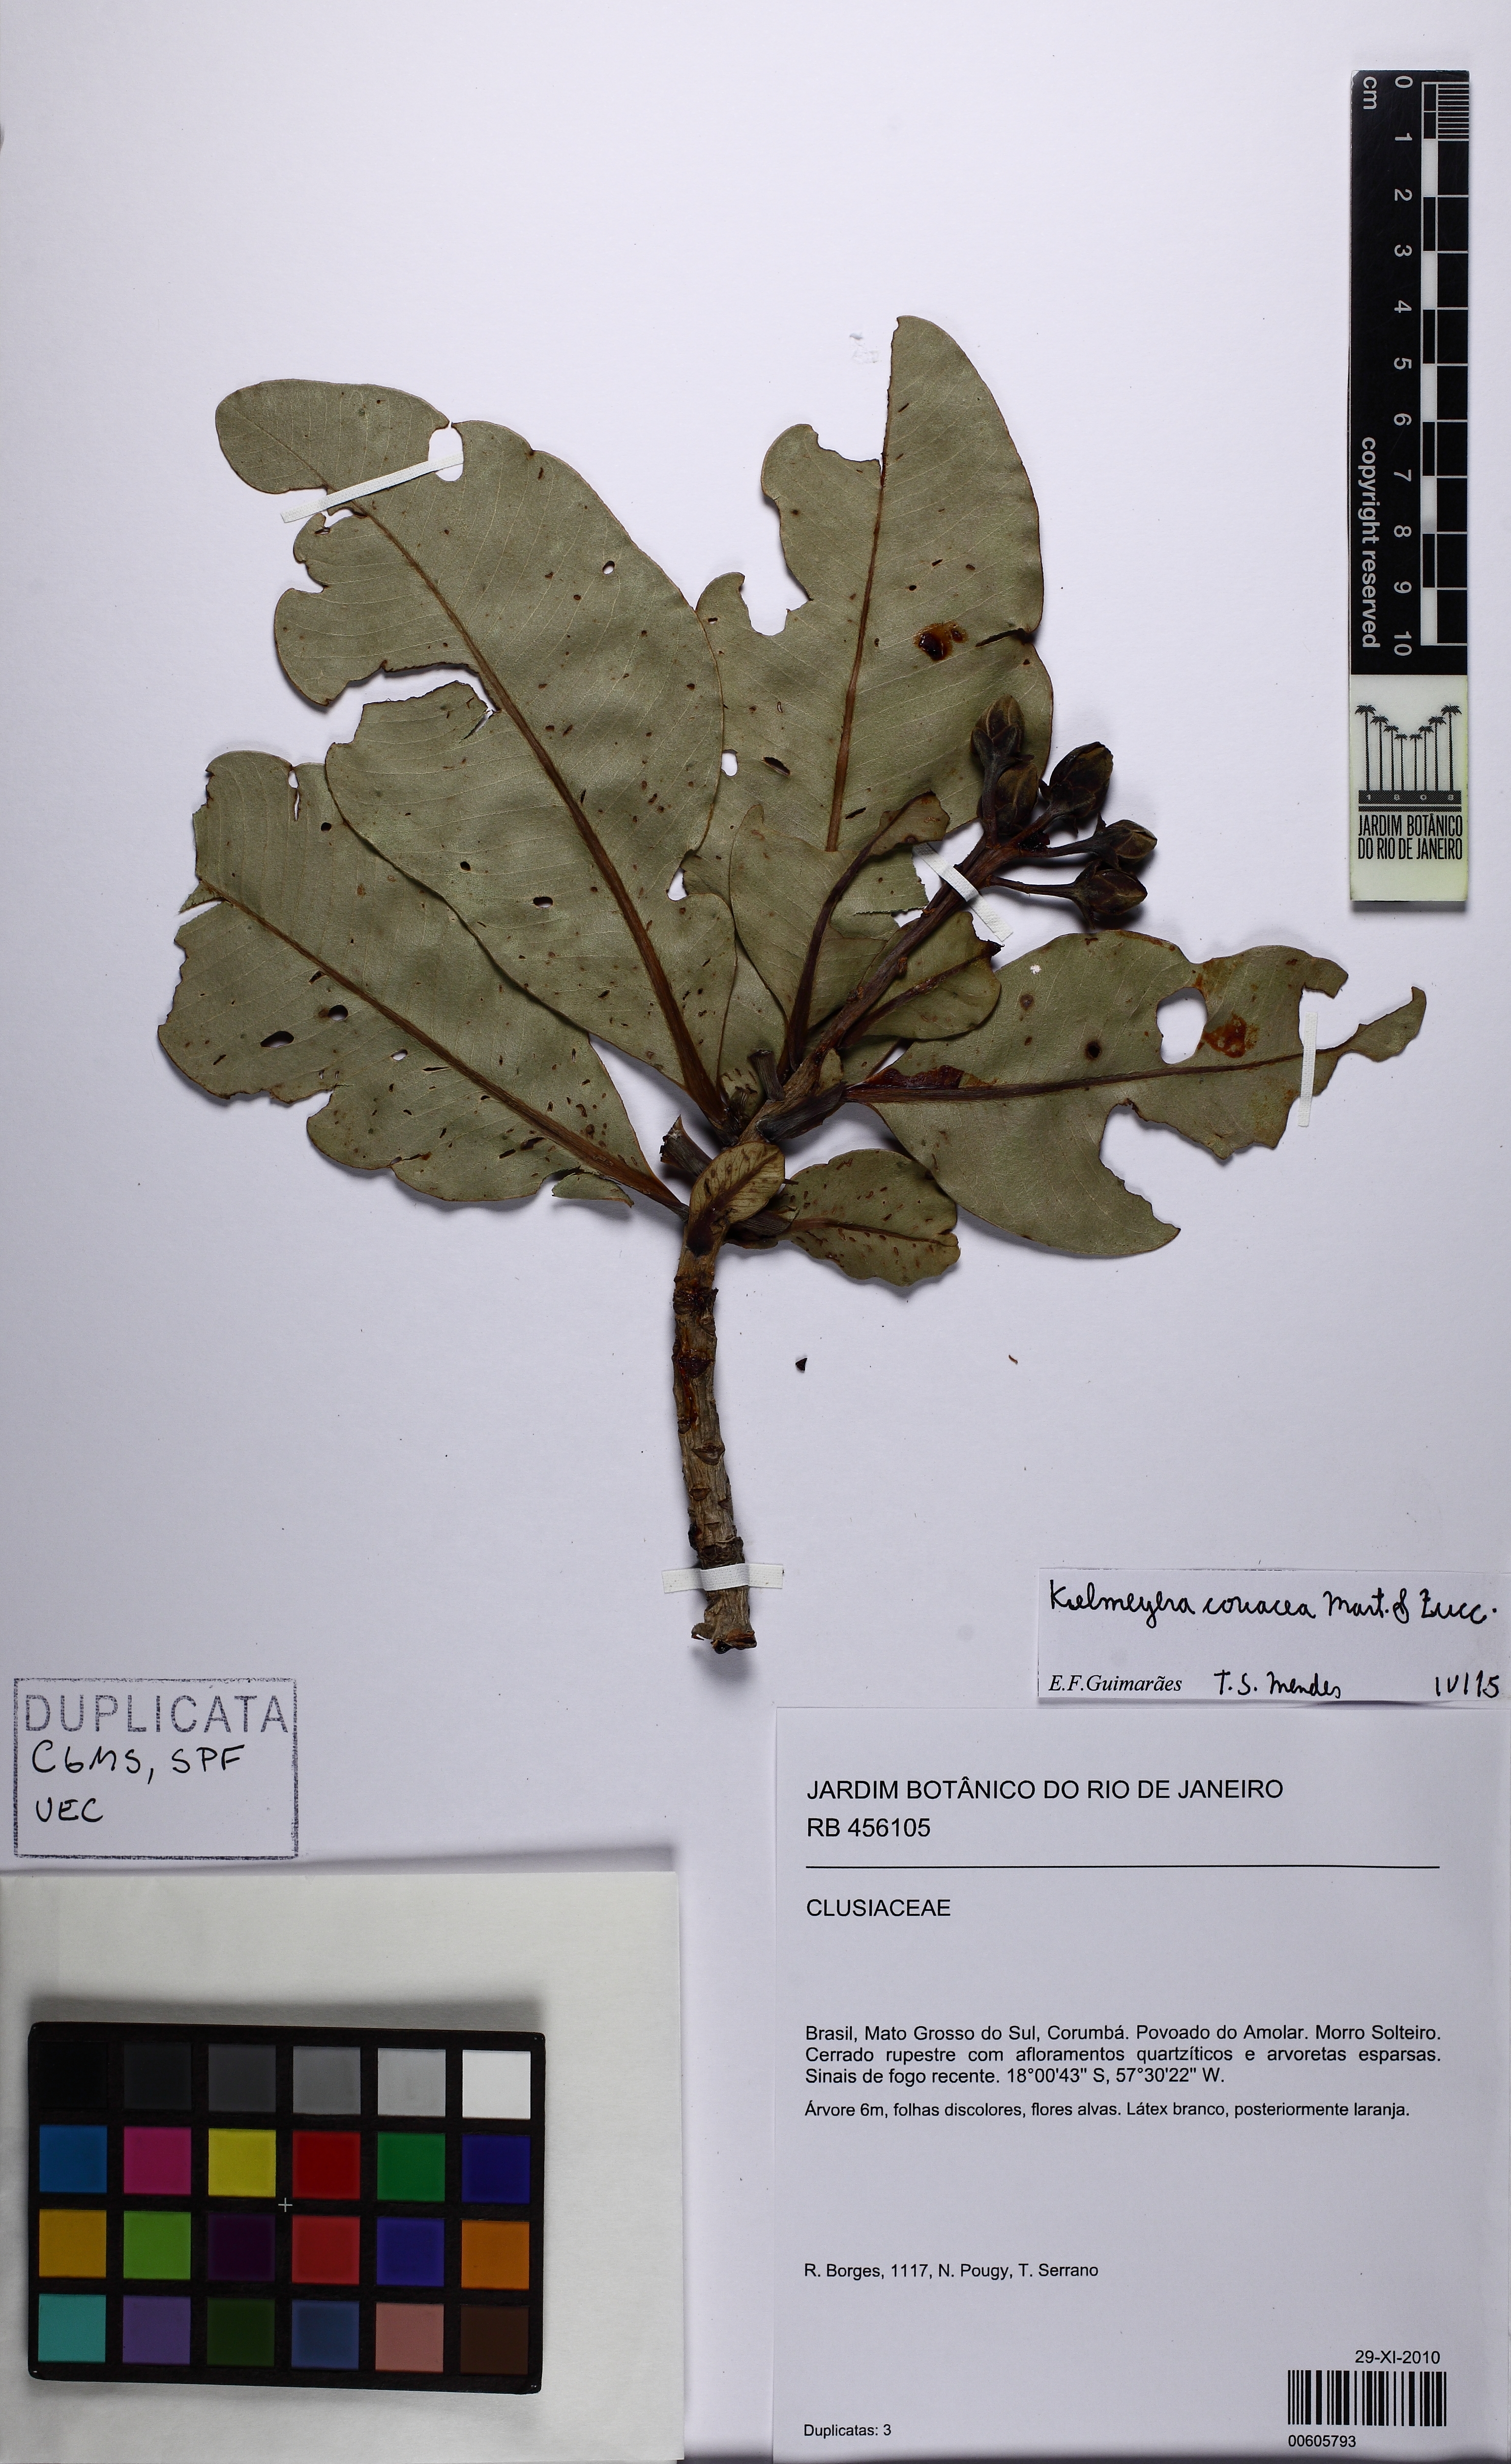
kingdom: Plantae
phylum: Tracheophyta
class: Magnoliopsida
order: Malpighiales
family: Calophyllaceae
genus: Kielmeyera
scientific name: Kielmeyera coriacea
